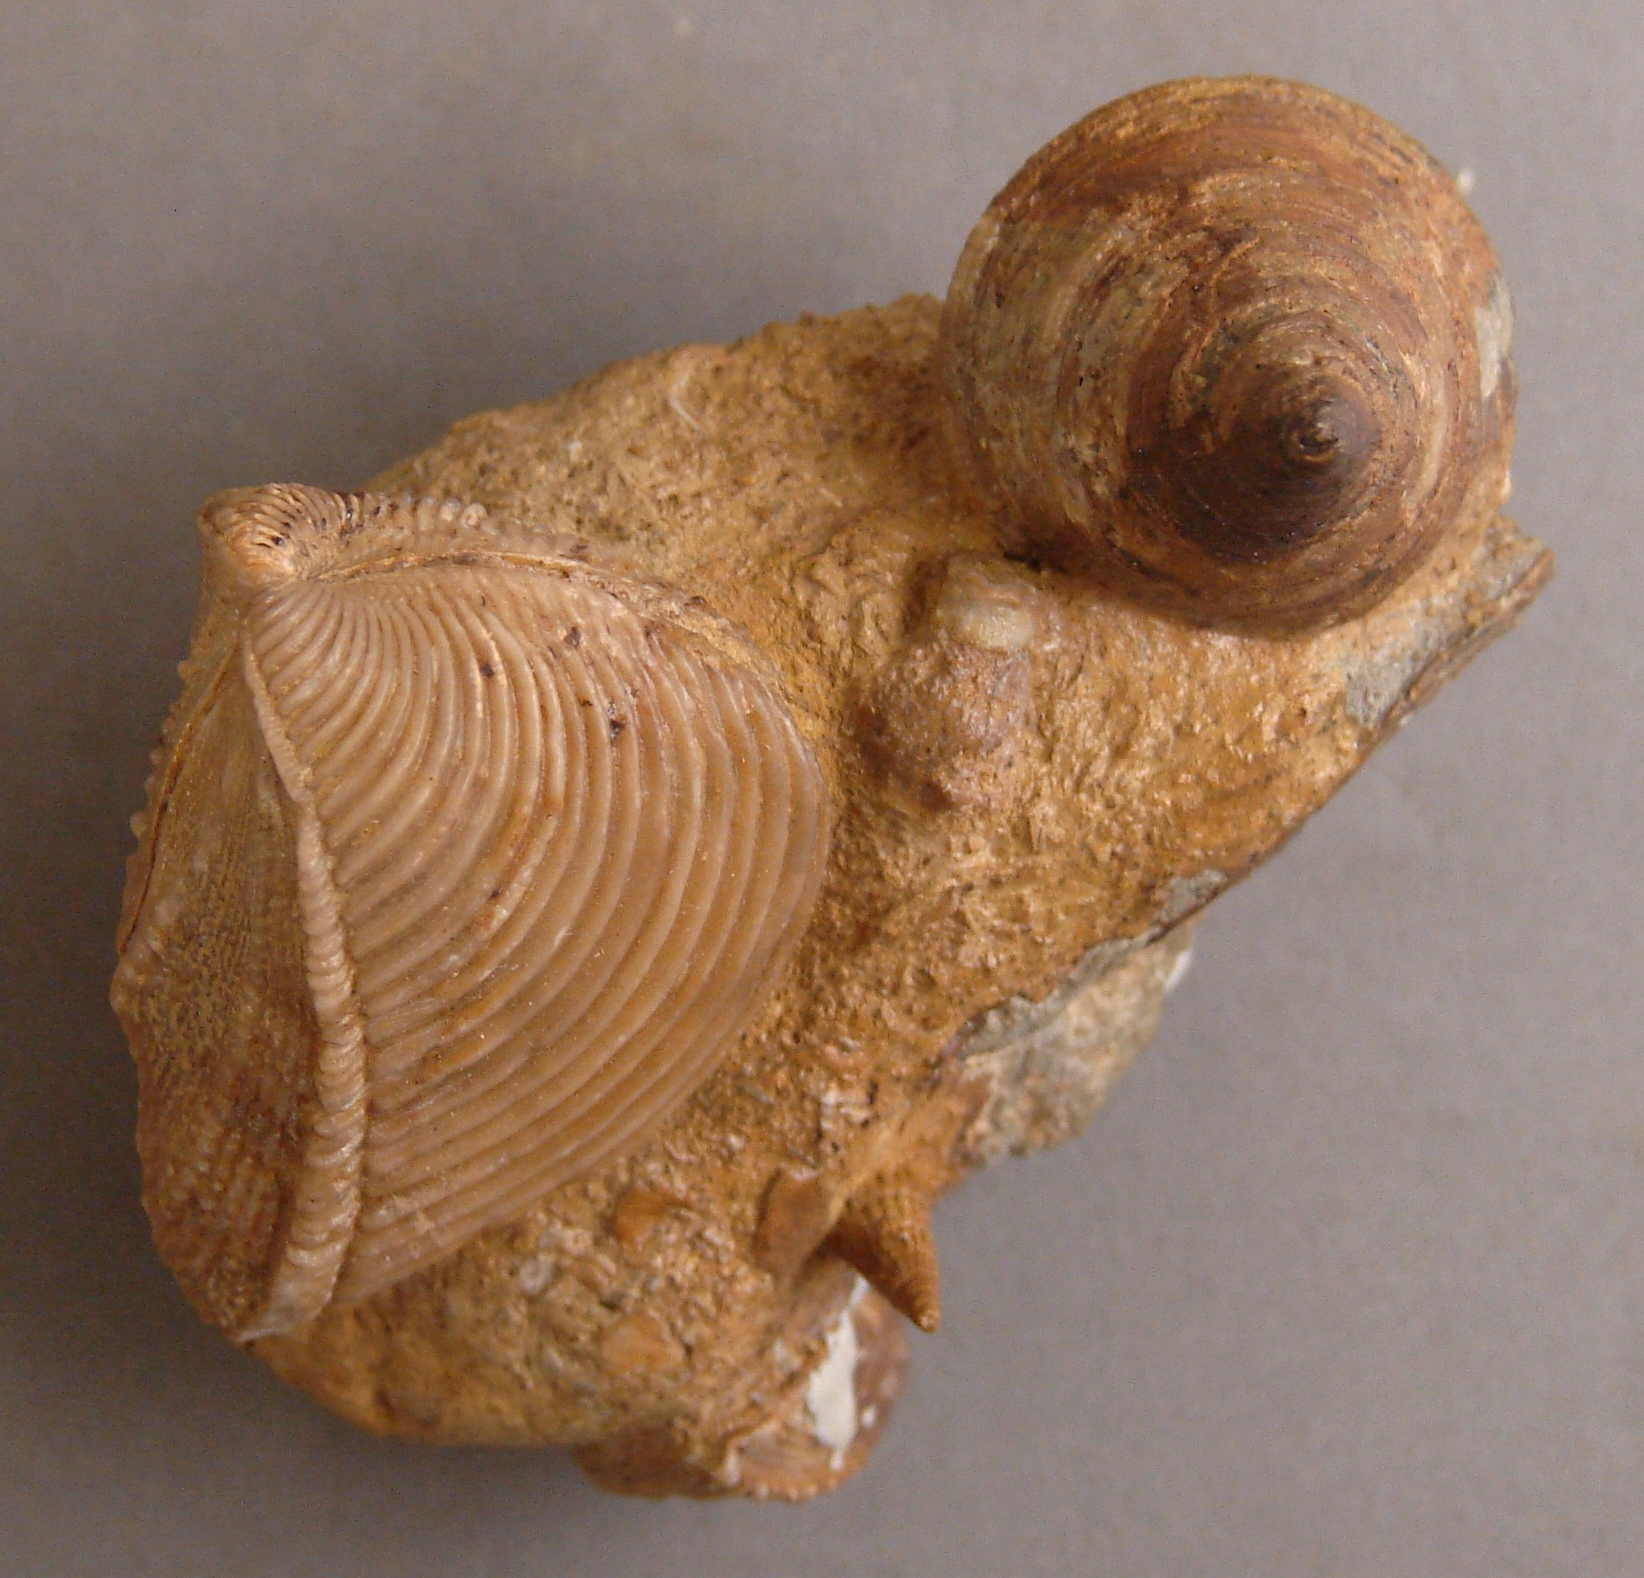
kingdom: Animalia
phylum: Mollusca
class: Gastropoda
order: Pleurotomariida
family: Pleurotomariidae
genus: Pyrgotrochus
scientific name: Pyrgotrochus elongatus
